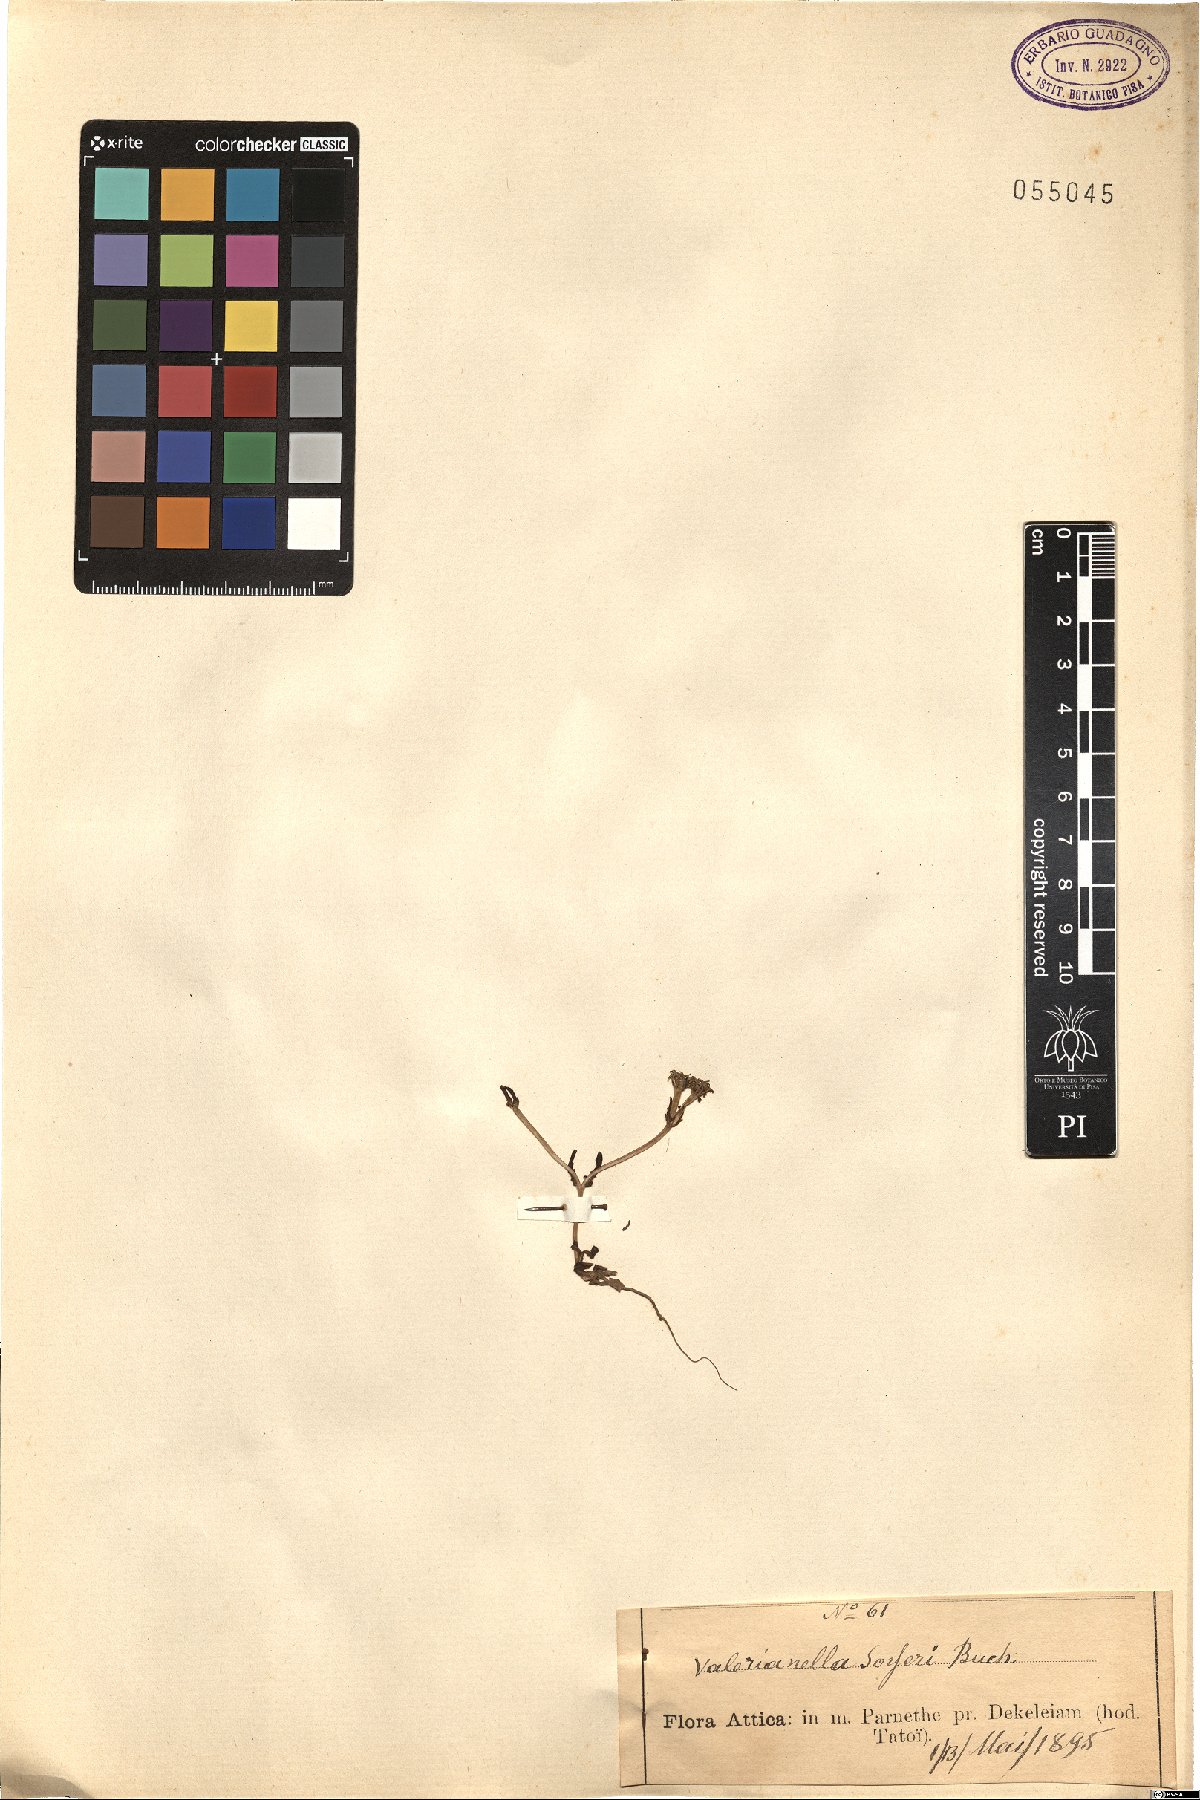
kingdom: Plantae
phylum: Tracheophyta
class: Magnoliopsida
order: Dipsacales
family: Caprifoliaceae
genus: Valerianella
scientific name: Valerianella echinata
